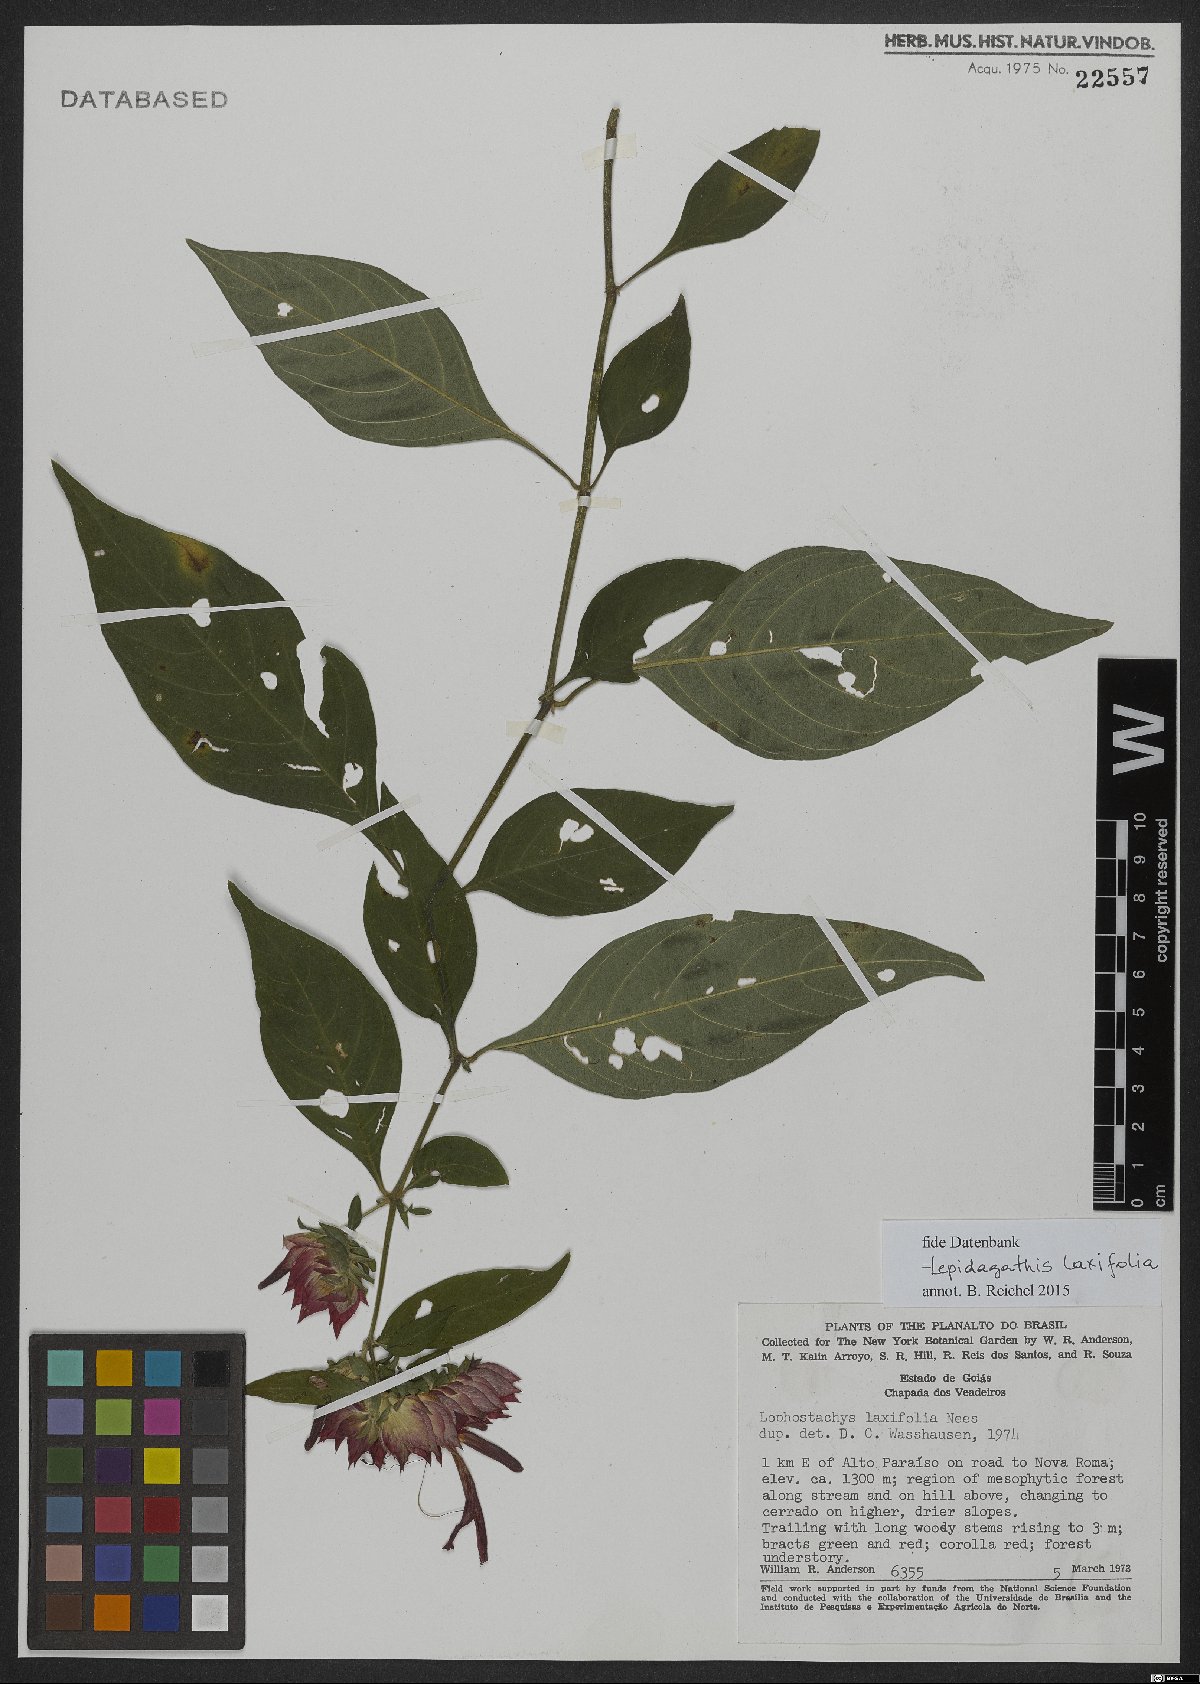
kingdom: Plantae
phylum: Tracheophyta
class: Magnoliopsida
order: Lamiales
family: Acanthaceae
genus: Lepidagathis
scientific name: Lepidagathis laxifolia
